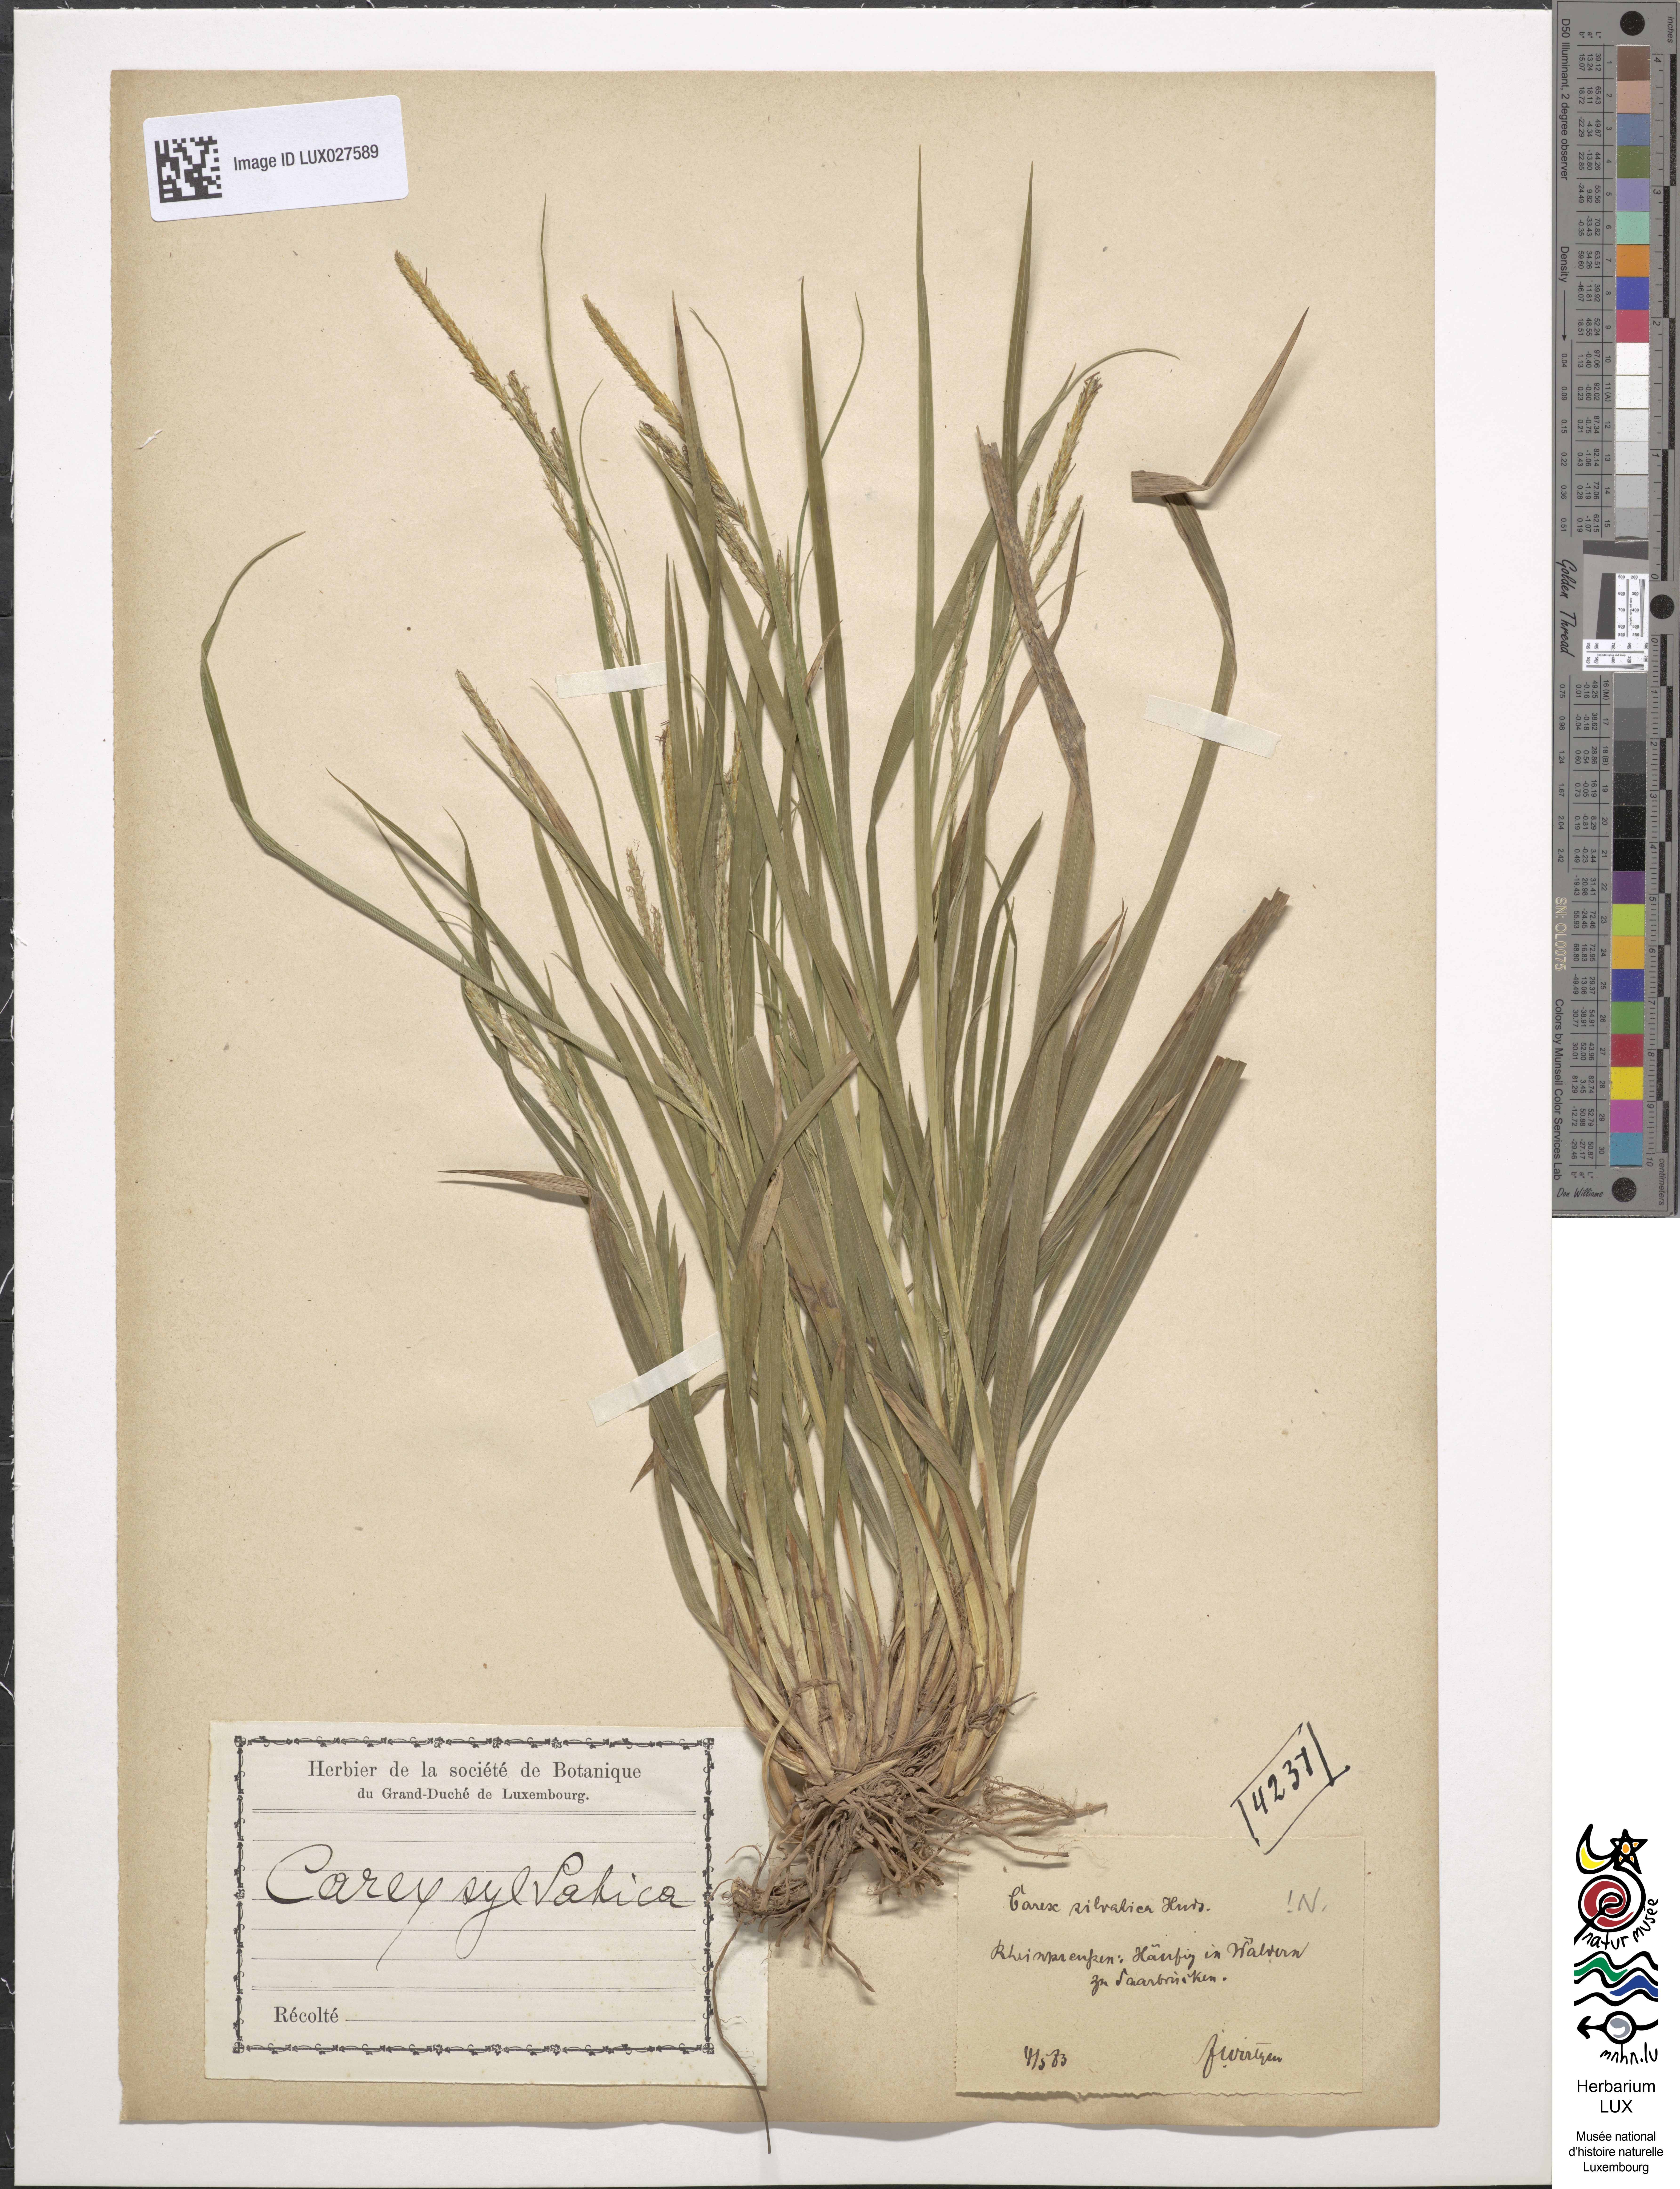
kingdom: Plantae
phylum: Tracheophyta
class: Liliopsida
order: Poales
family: Cyperaceae
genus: Carex
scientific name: Carex sylvatica
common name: Wood-sedge
